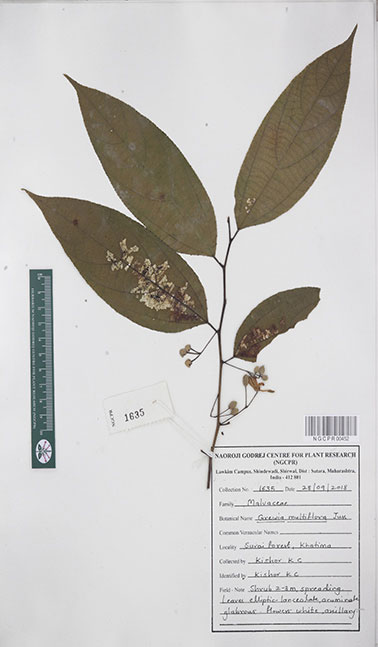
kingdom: Plantae
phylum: Tracheophyta
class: Magnoliopsida
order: Malvales
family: Malvaceae
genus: Grewia
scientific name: Grewia multiflora
